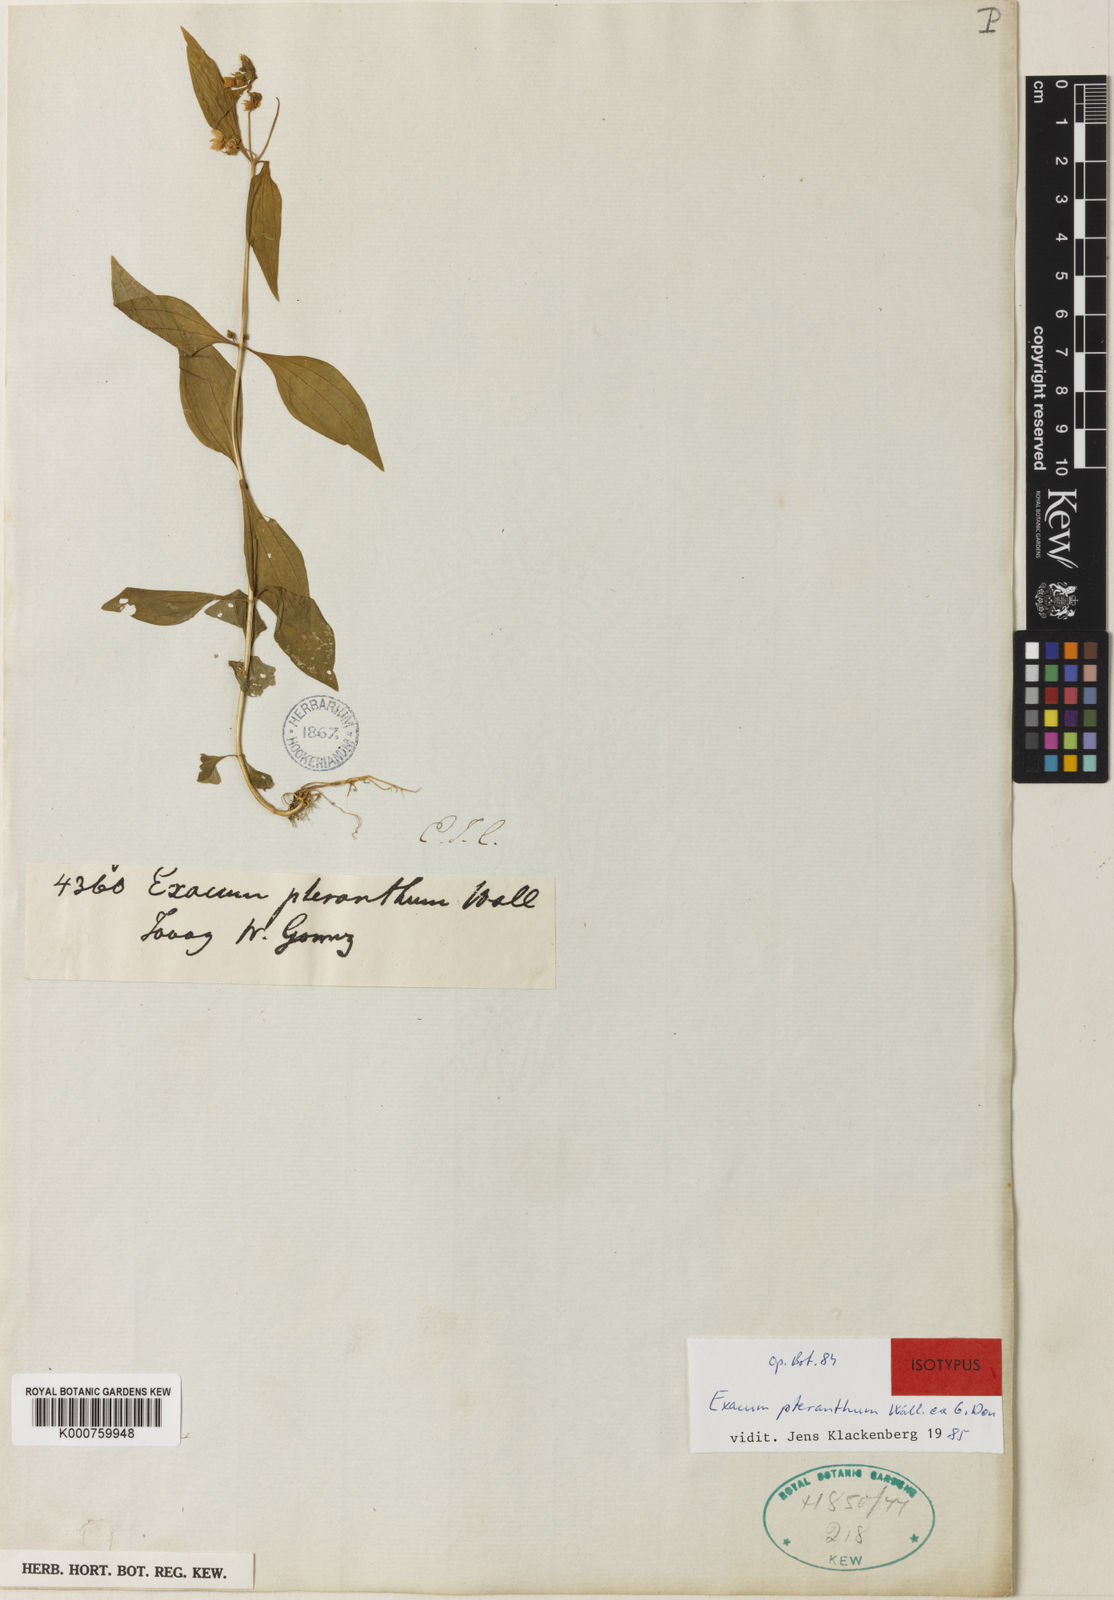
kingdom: Plantae
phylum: Tracheophyta
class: Magnoliopsida
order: Gentianales
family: Gentianaceae
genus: Exacum
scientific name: Exacum pteranthum
